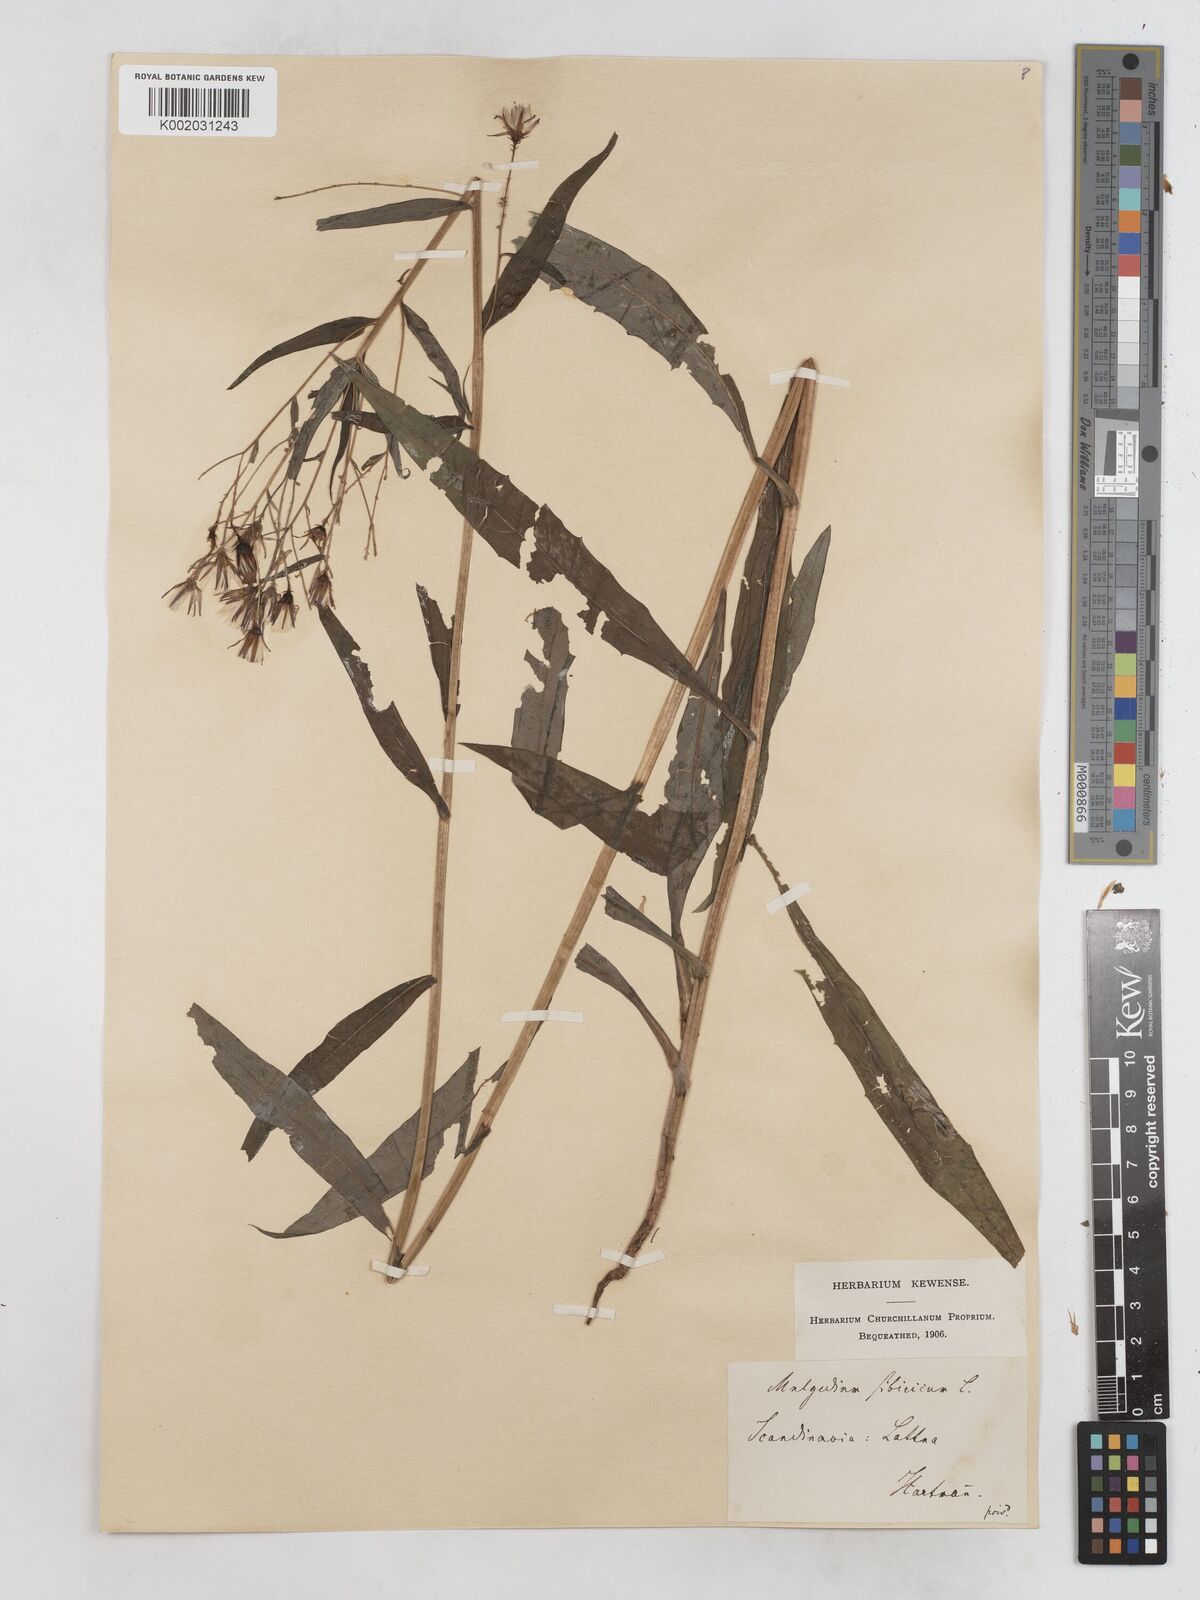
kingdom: Plantae
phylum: Tracheophyta
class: Magnoliopsida
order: Asterales
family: Asteraceae
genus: Lactuca
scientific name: Lactuca sibirica
